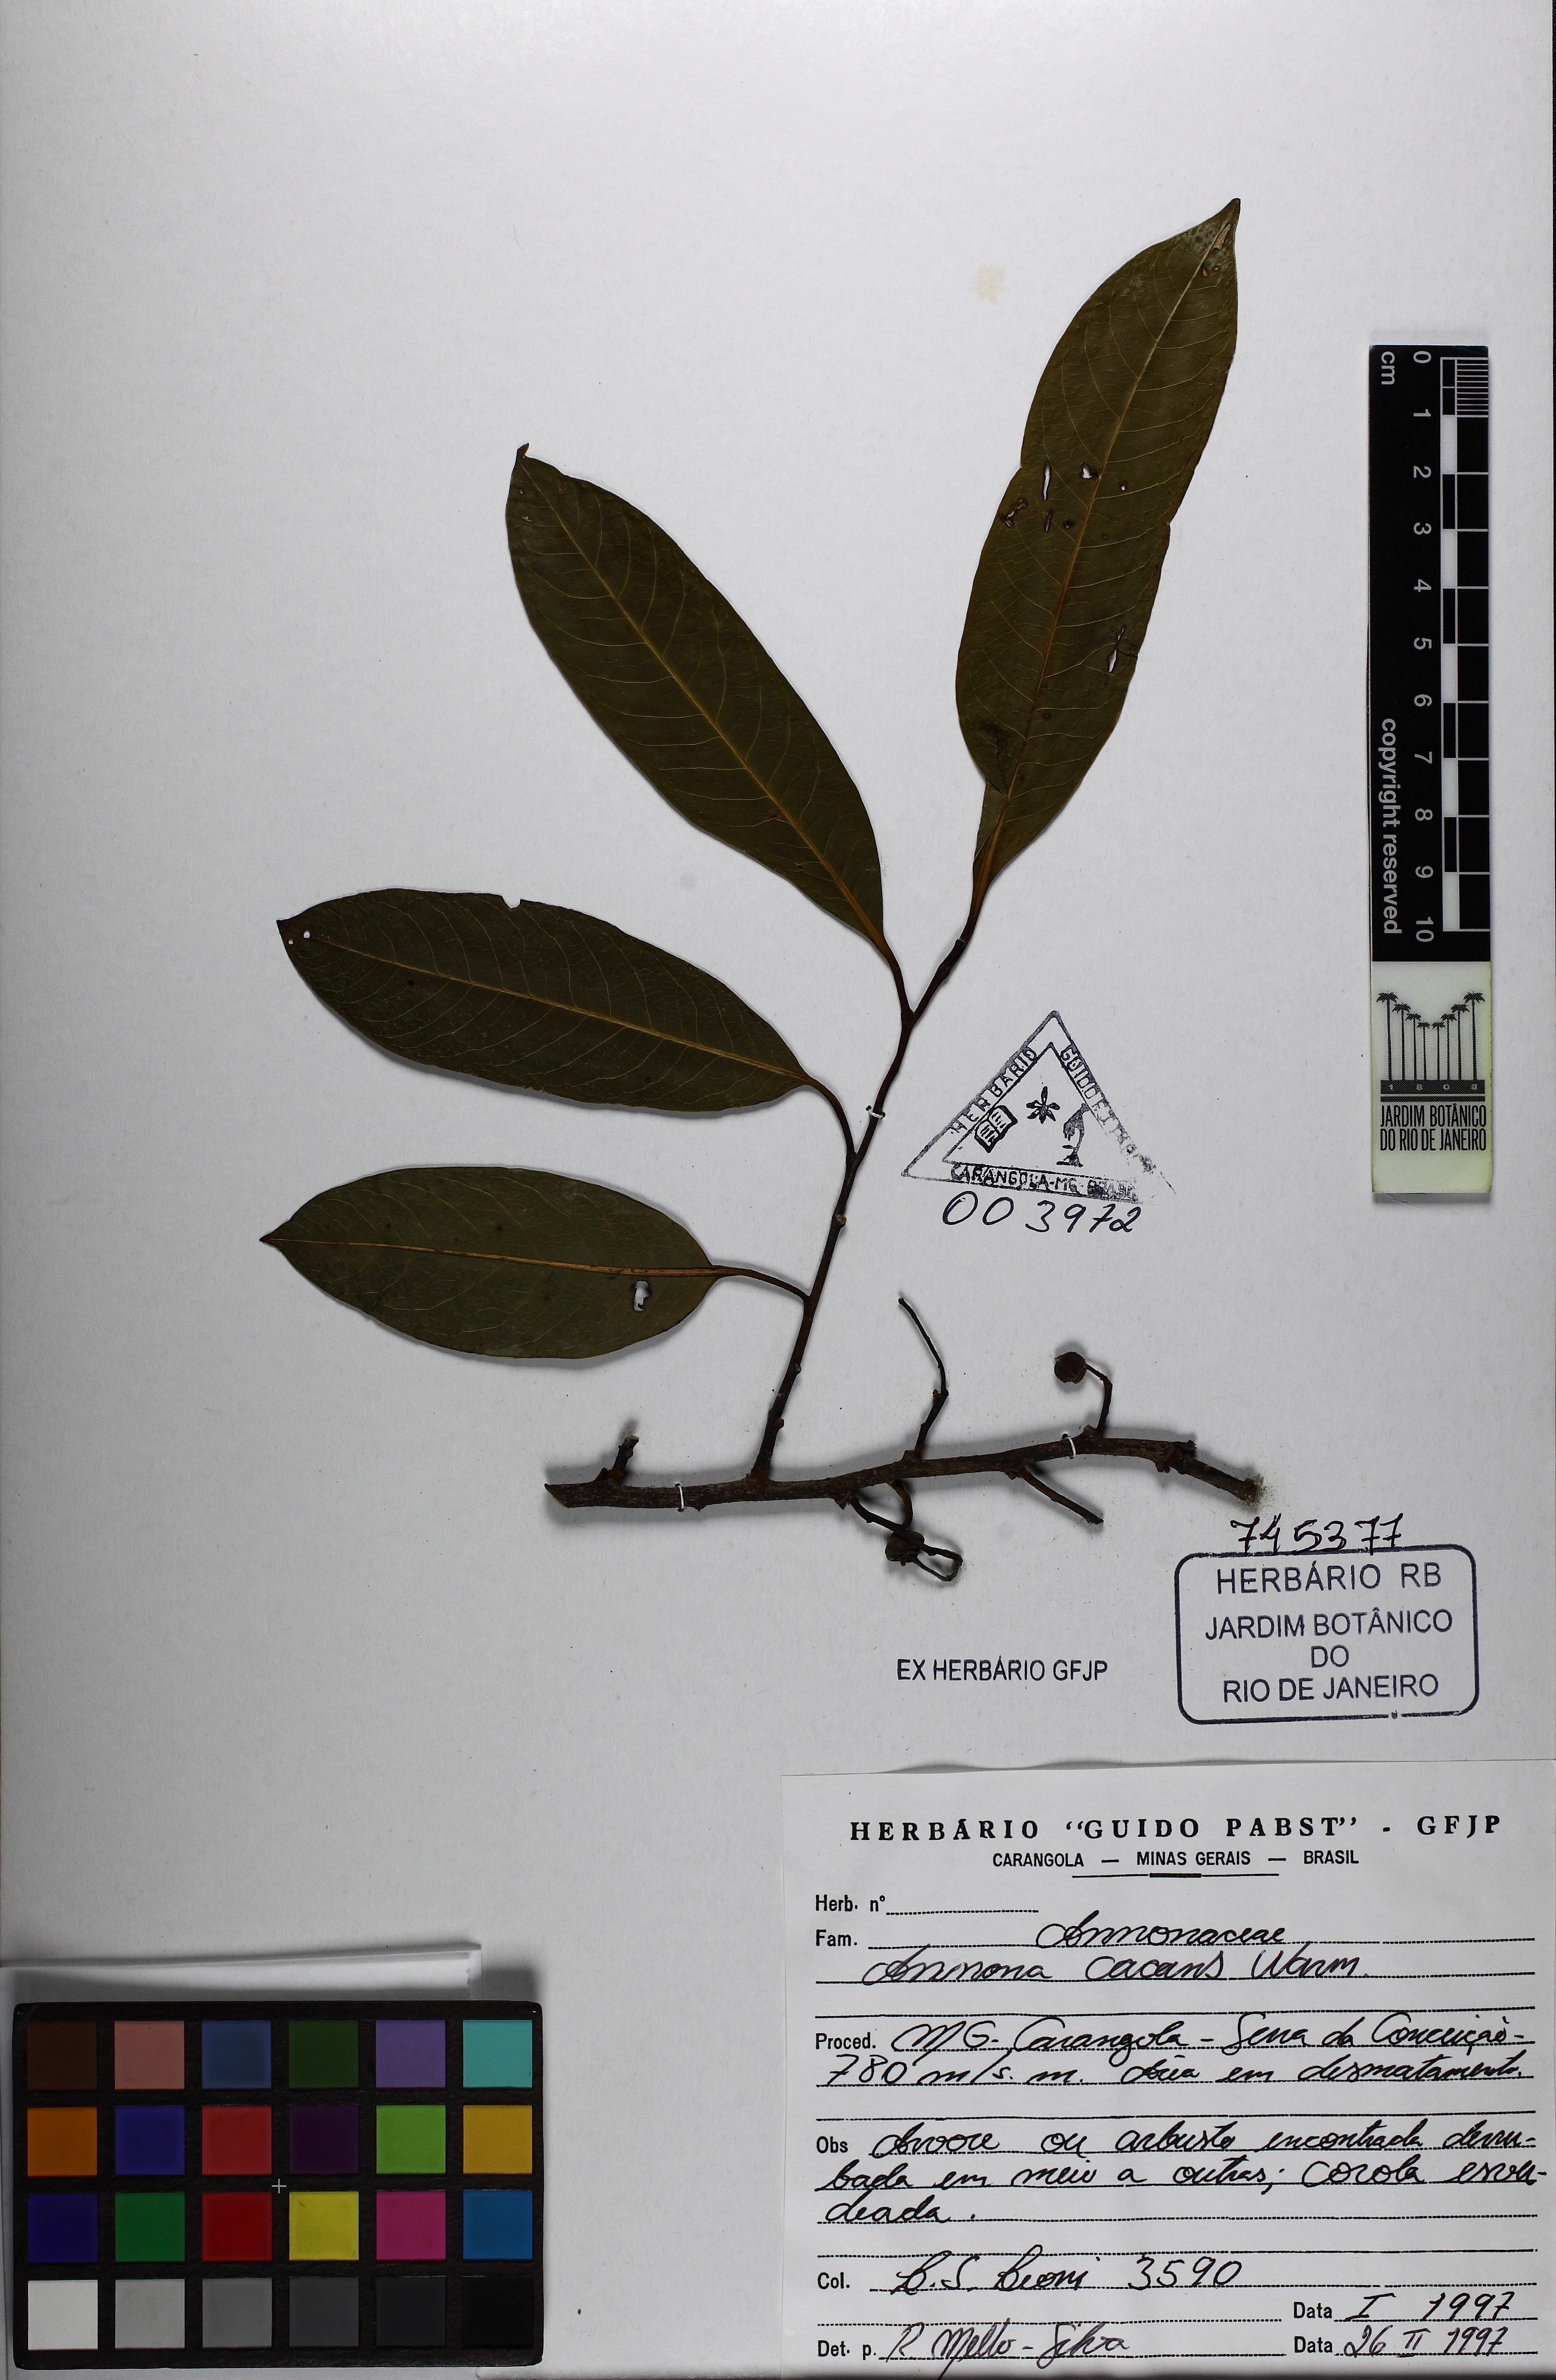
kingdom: Plantae
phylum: Tracheophyta
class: Magnoliopsida
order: Magnoliales
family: Annonaceae
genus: Annona
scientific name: Annona cacans
